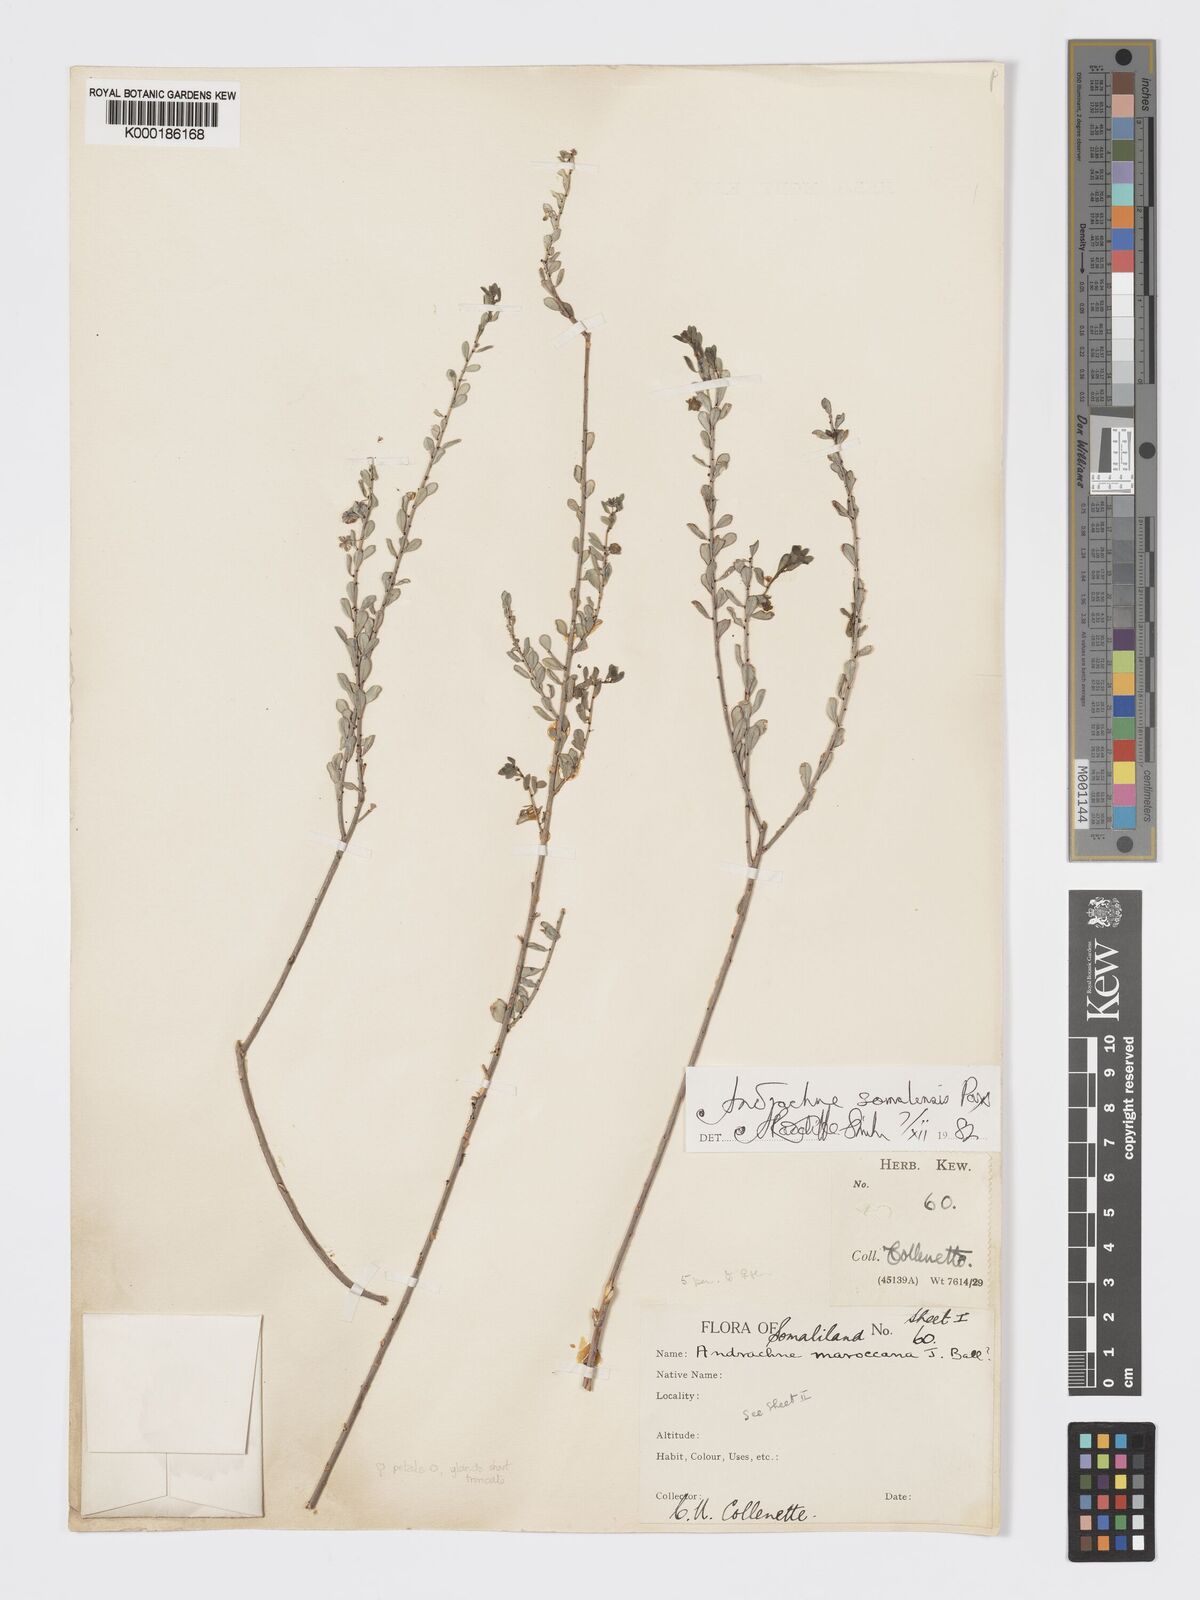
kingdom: Plantae
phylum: Tracheophyta
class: Magnoliopsida
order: Malpighiales
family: Phyllanthaceae
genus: Andrachne
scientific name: Andrachne schweinfurthii
